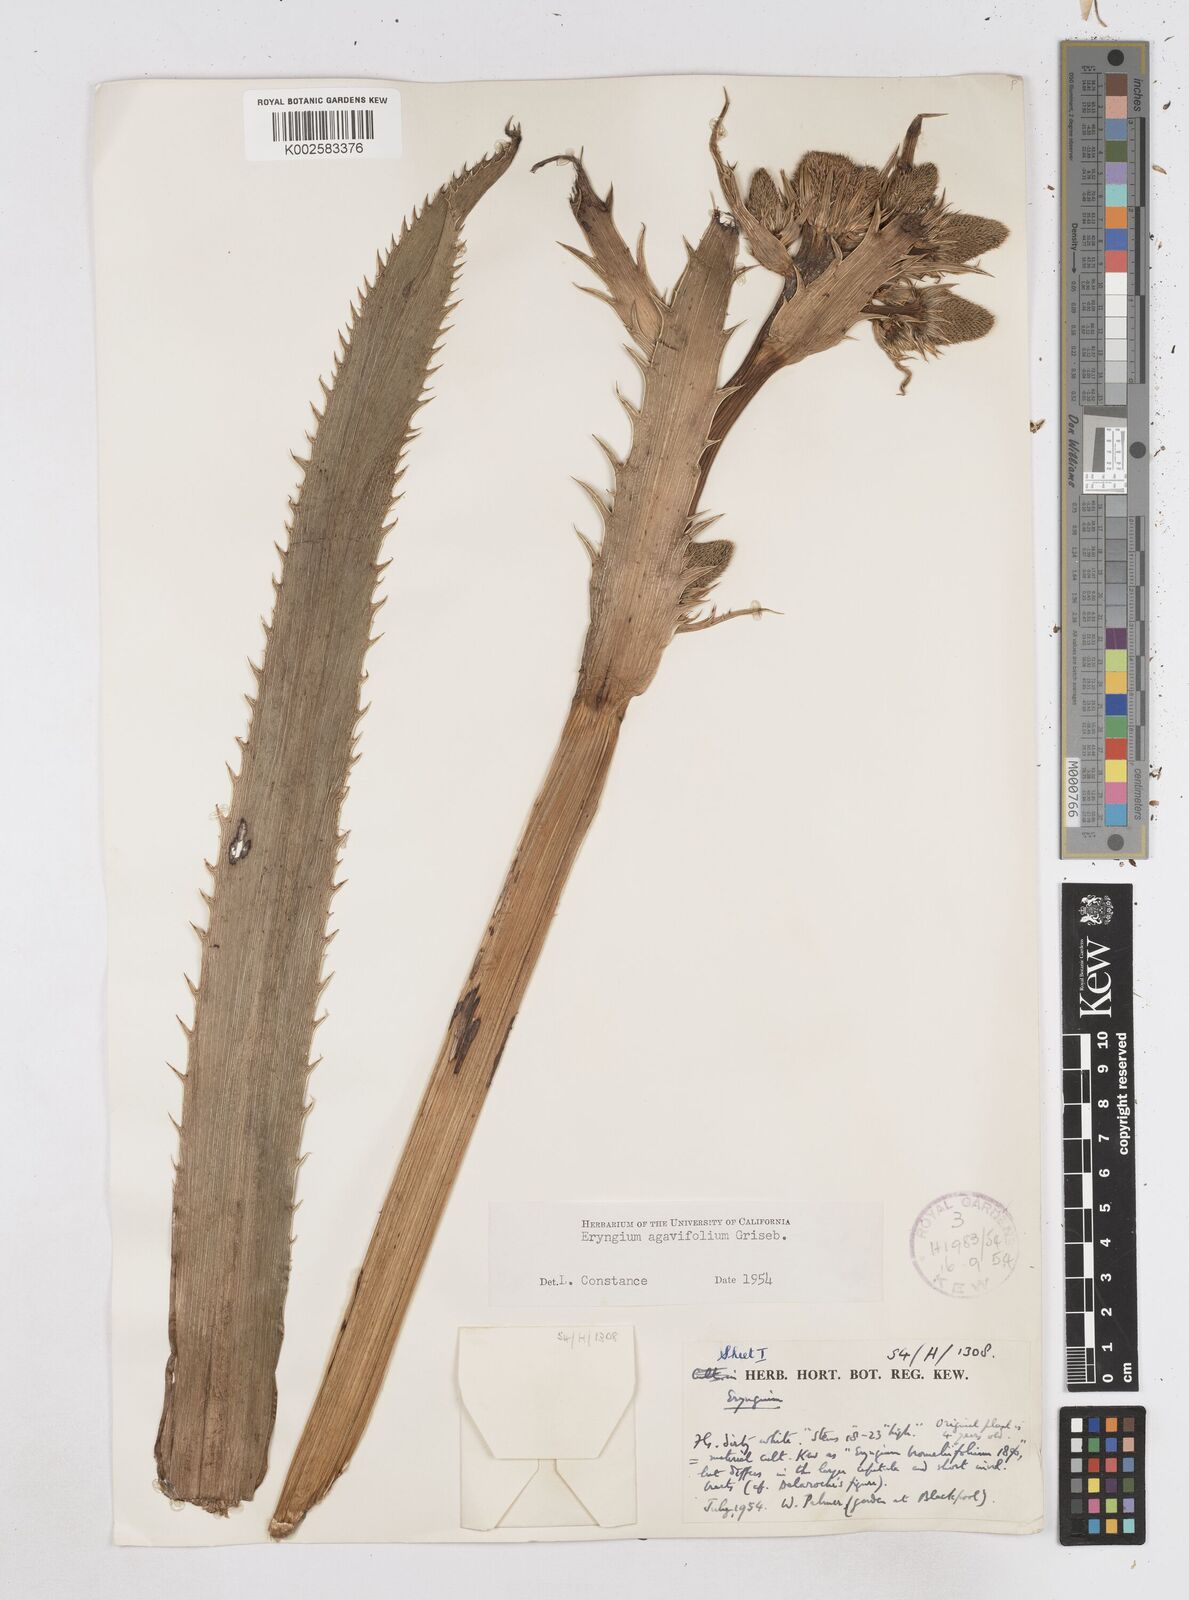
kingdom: Plantae
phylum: Tracheophyta
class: Magnoliopsida
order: Apiales
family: Apiaceae
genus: Eryngium
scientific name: Eryngium agavifolium
